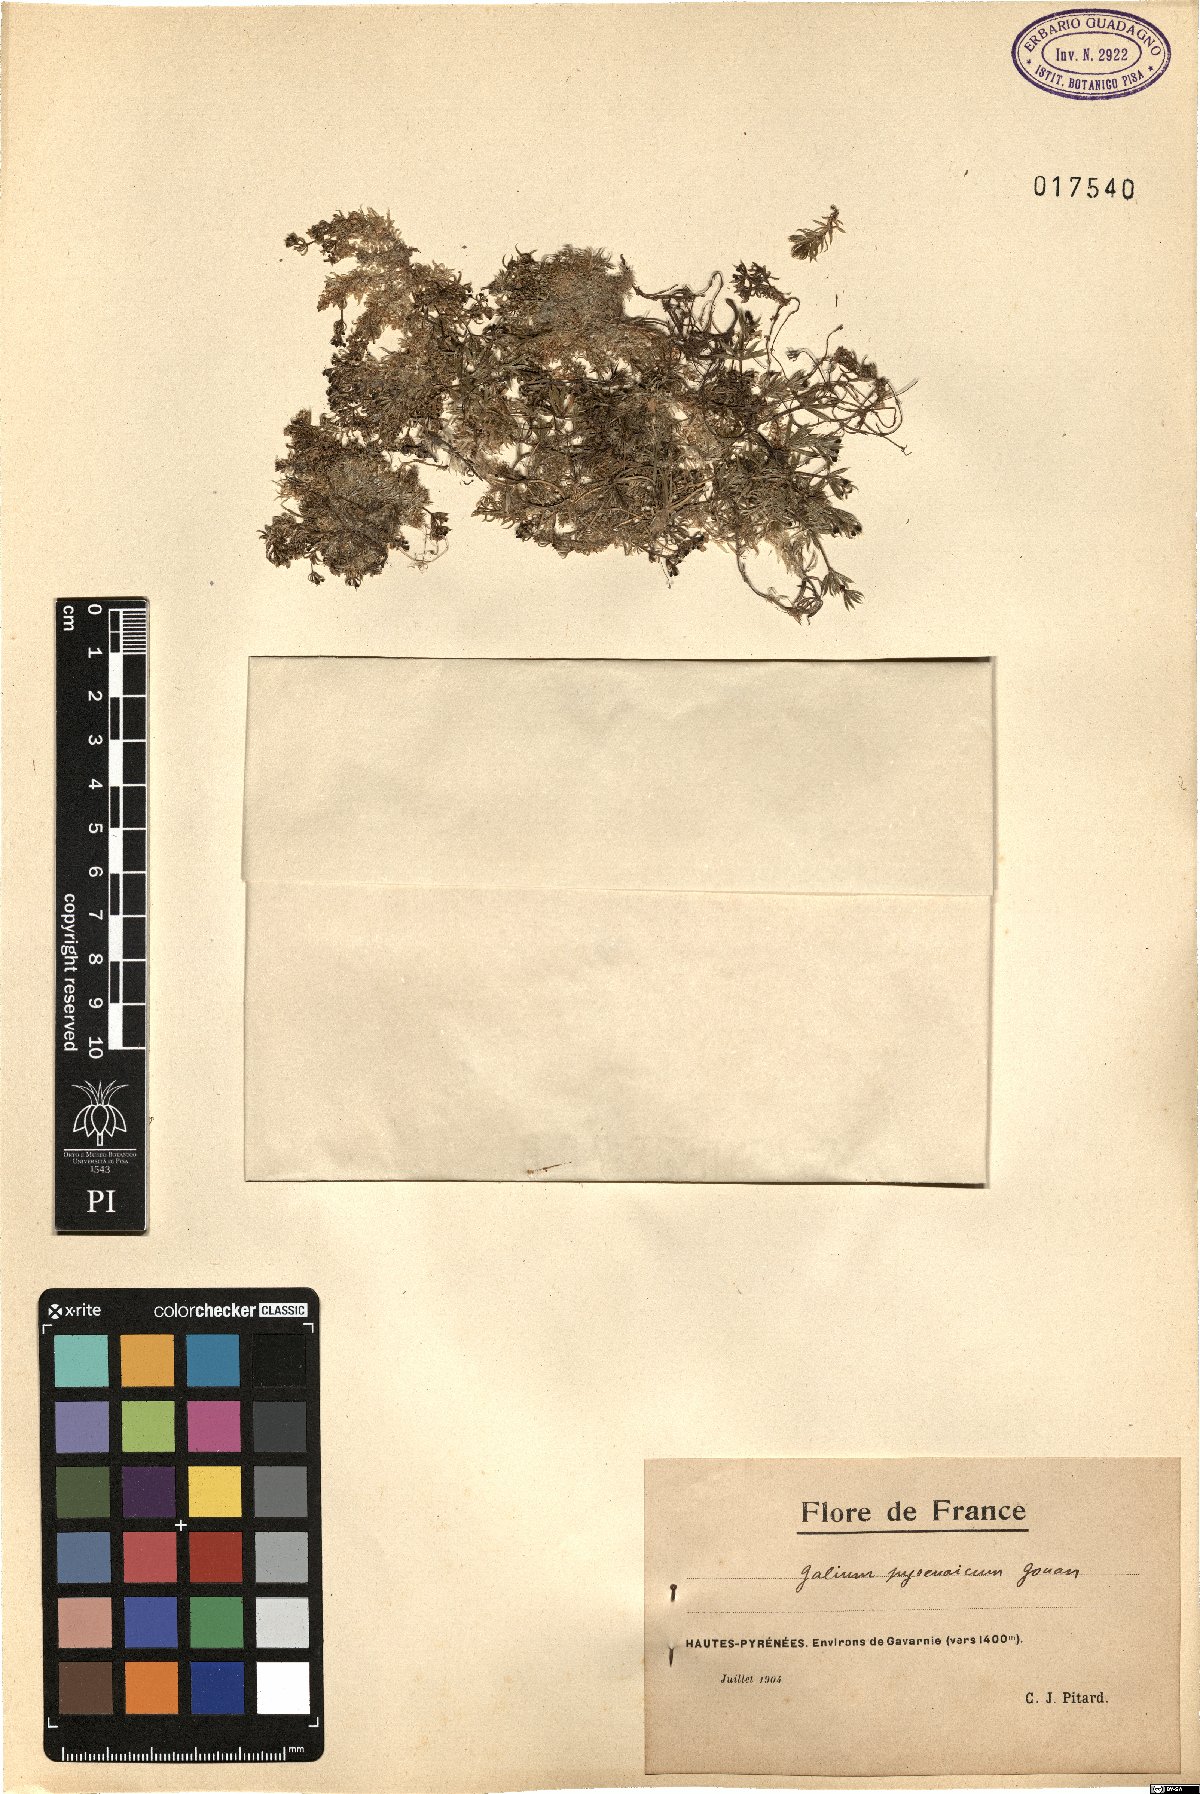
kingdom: Plantae
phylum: Tracheophyta
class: Magnoliopsida
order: Gentianales
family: Rubiaceae
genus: Galium
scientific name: Galium pyrenaicum
